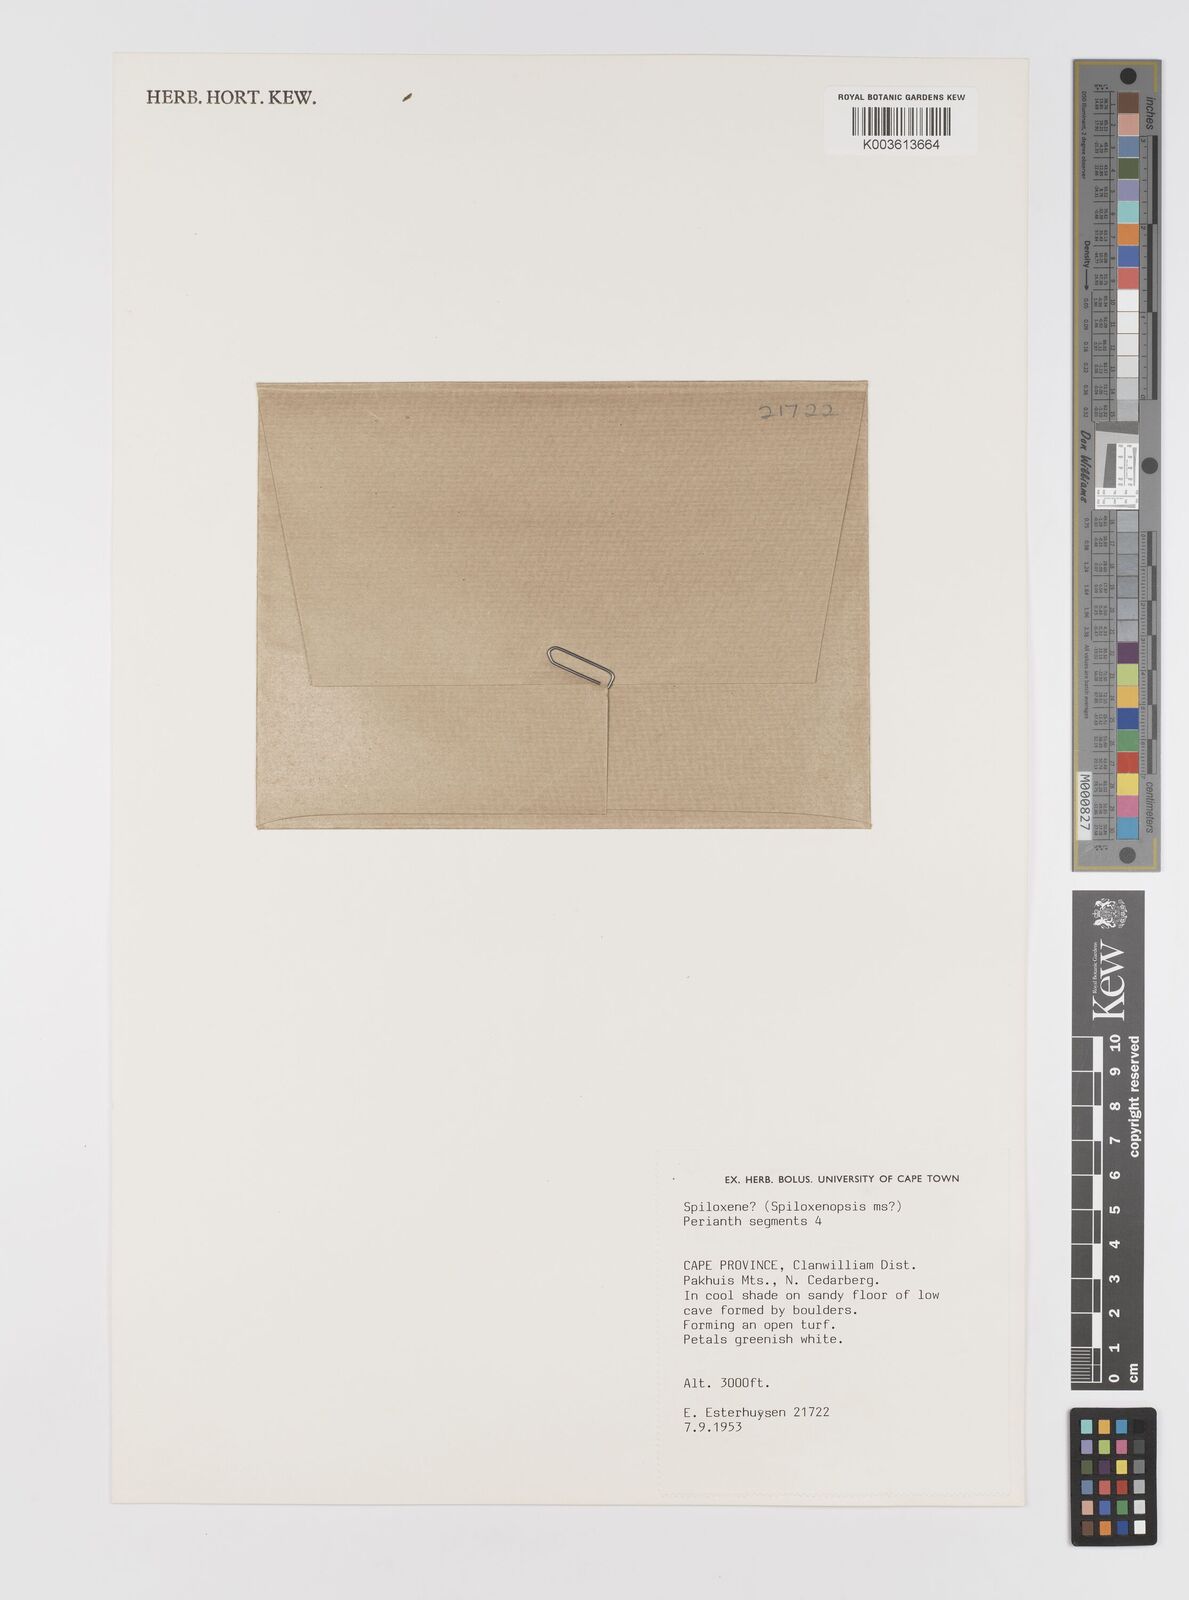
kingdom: Plantae
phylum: Tracheophyta
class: Liliopsida
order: Asparagales
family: Hypoxidaceae
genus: Pauridia
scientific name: Pauridia
